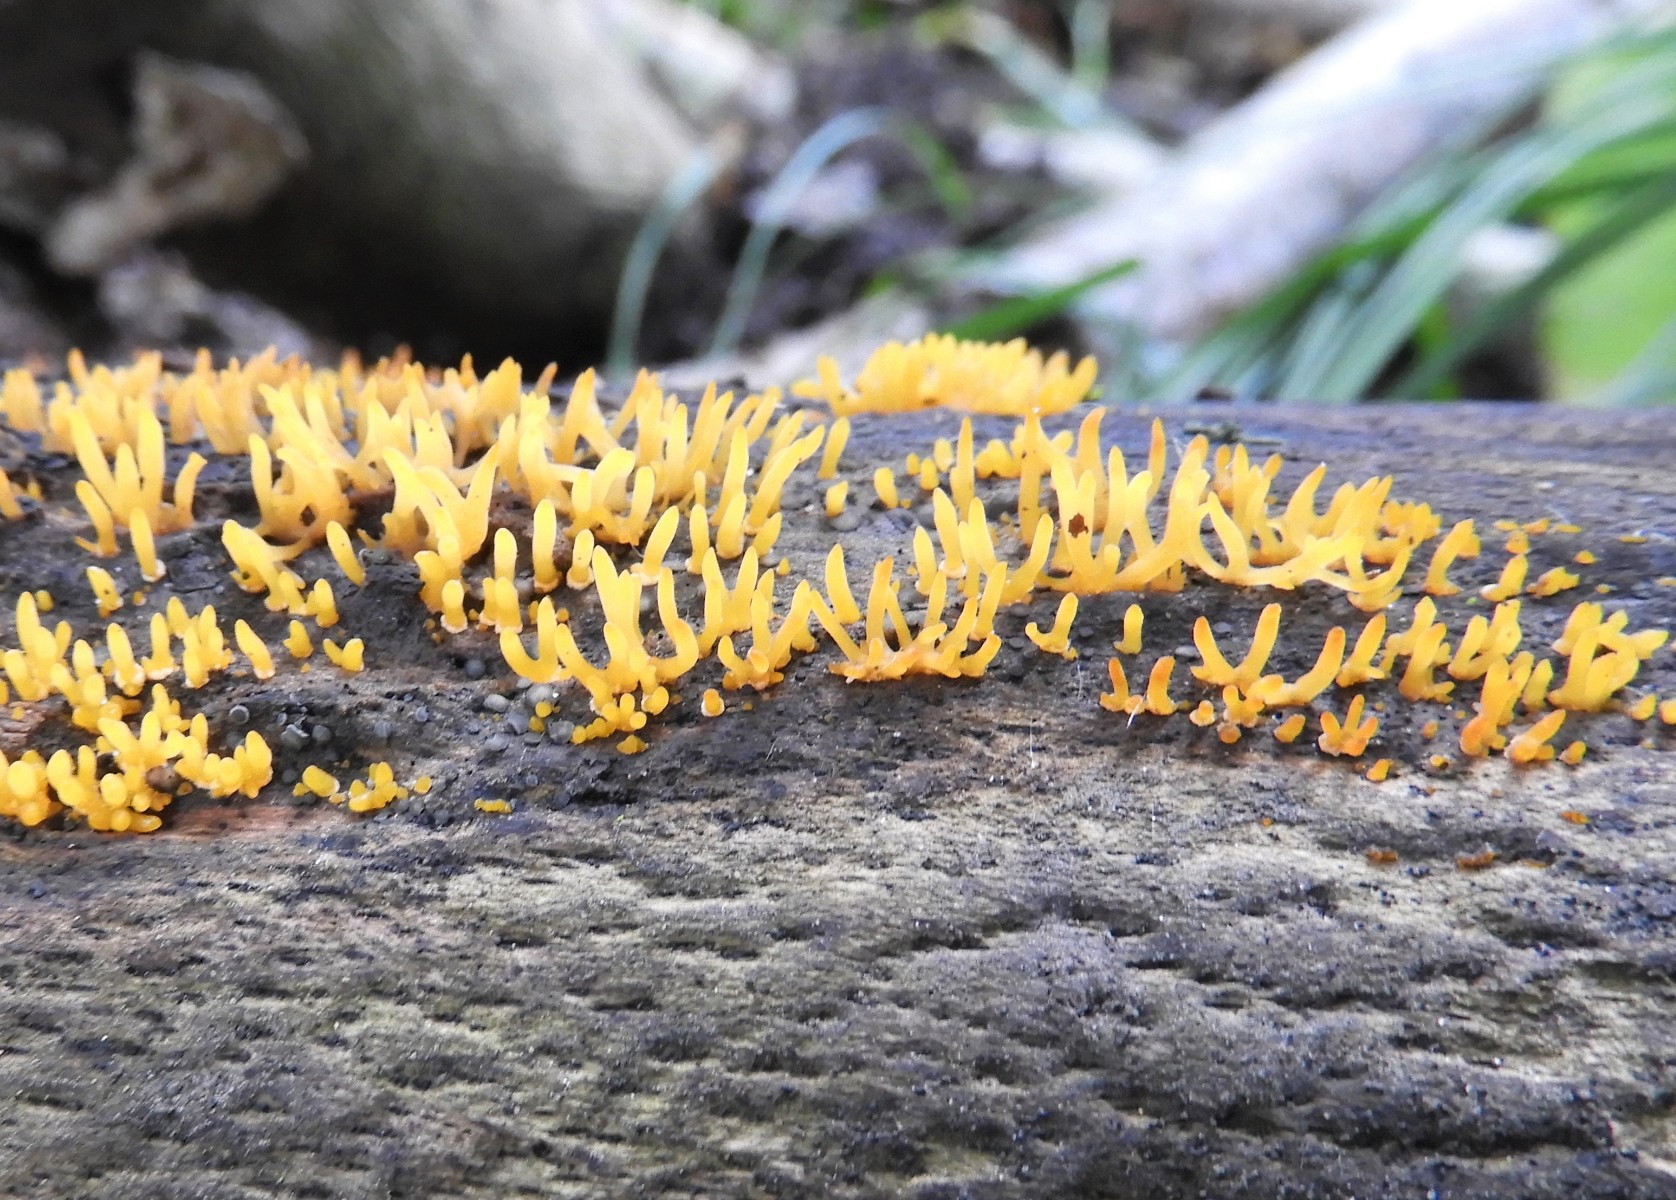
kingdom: Fungi
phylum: Basidiomycota
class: Dacrymycetes
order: Dacrymycetales
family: Dacrymycetaceae
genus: Calocera
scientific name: Calocera cornea
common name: liden guldgaffel
